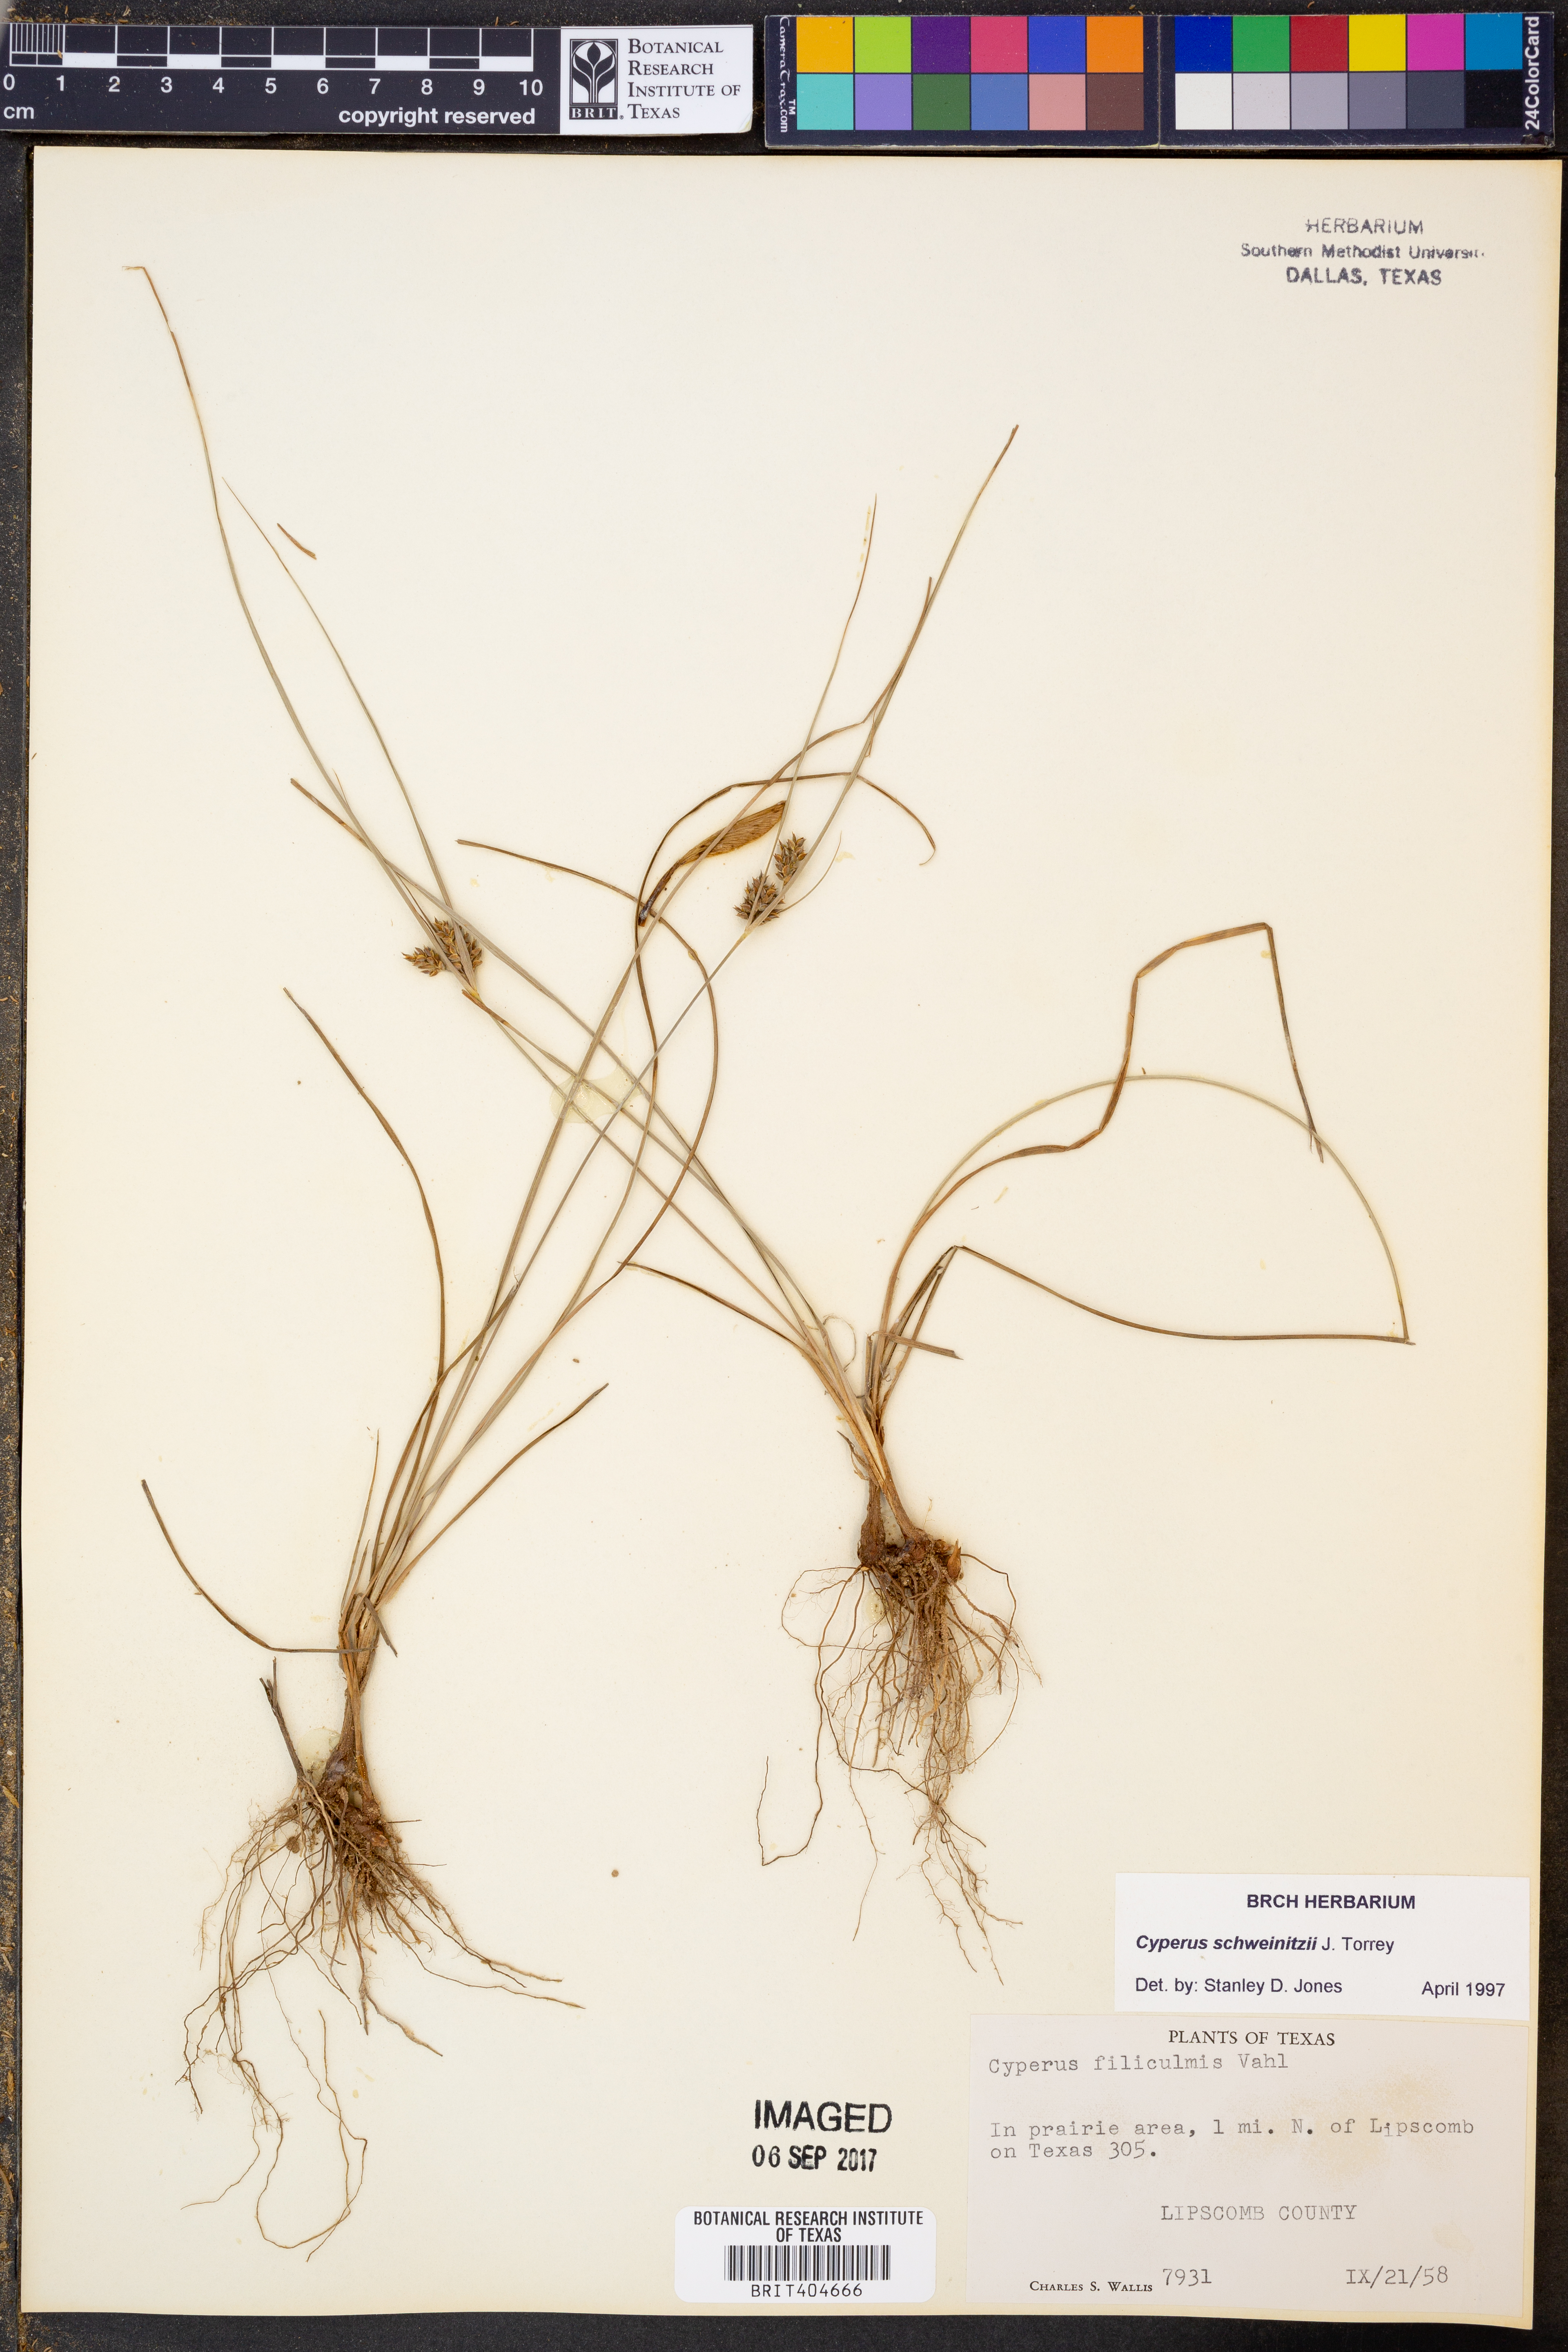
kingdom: Plantae
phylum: Tracheophyta
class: Liliopsida
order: Poales
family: Cyperaceae
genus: Cyperus
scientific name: Cyperus schweinitzii
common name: Schweinitz's cyperus
